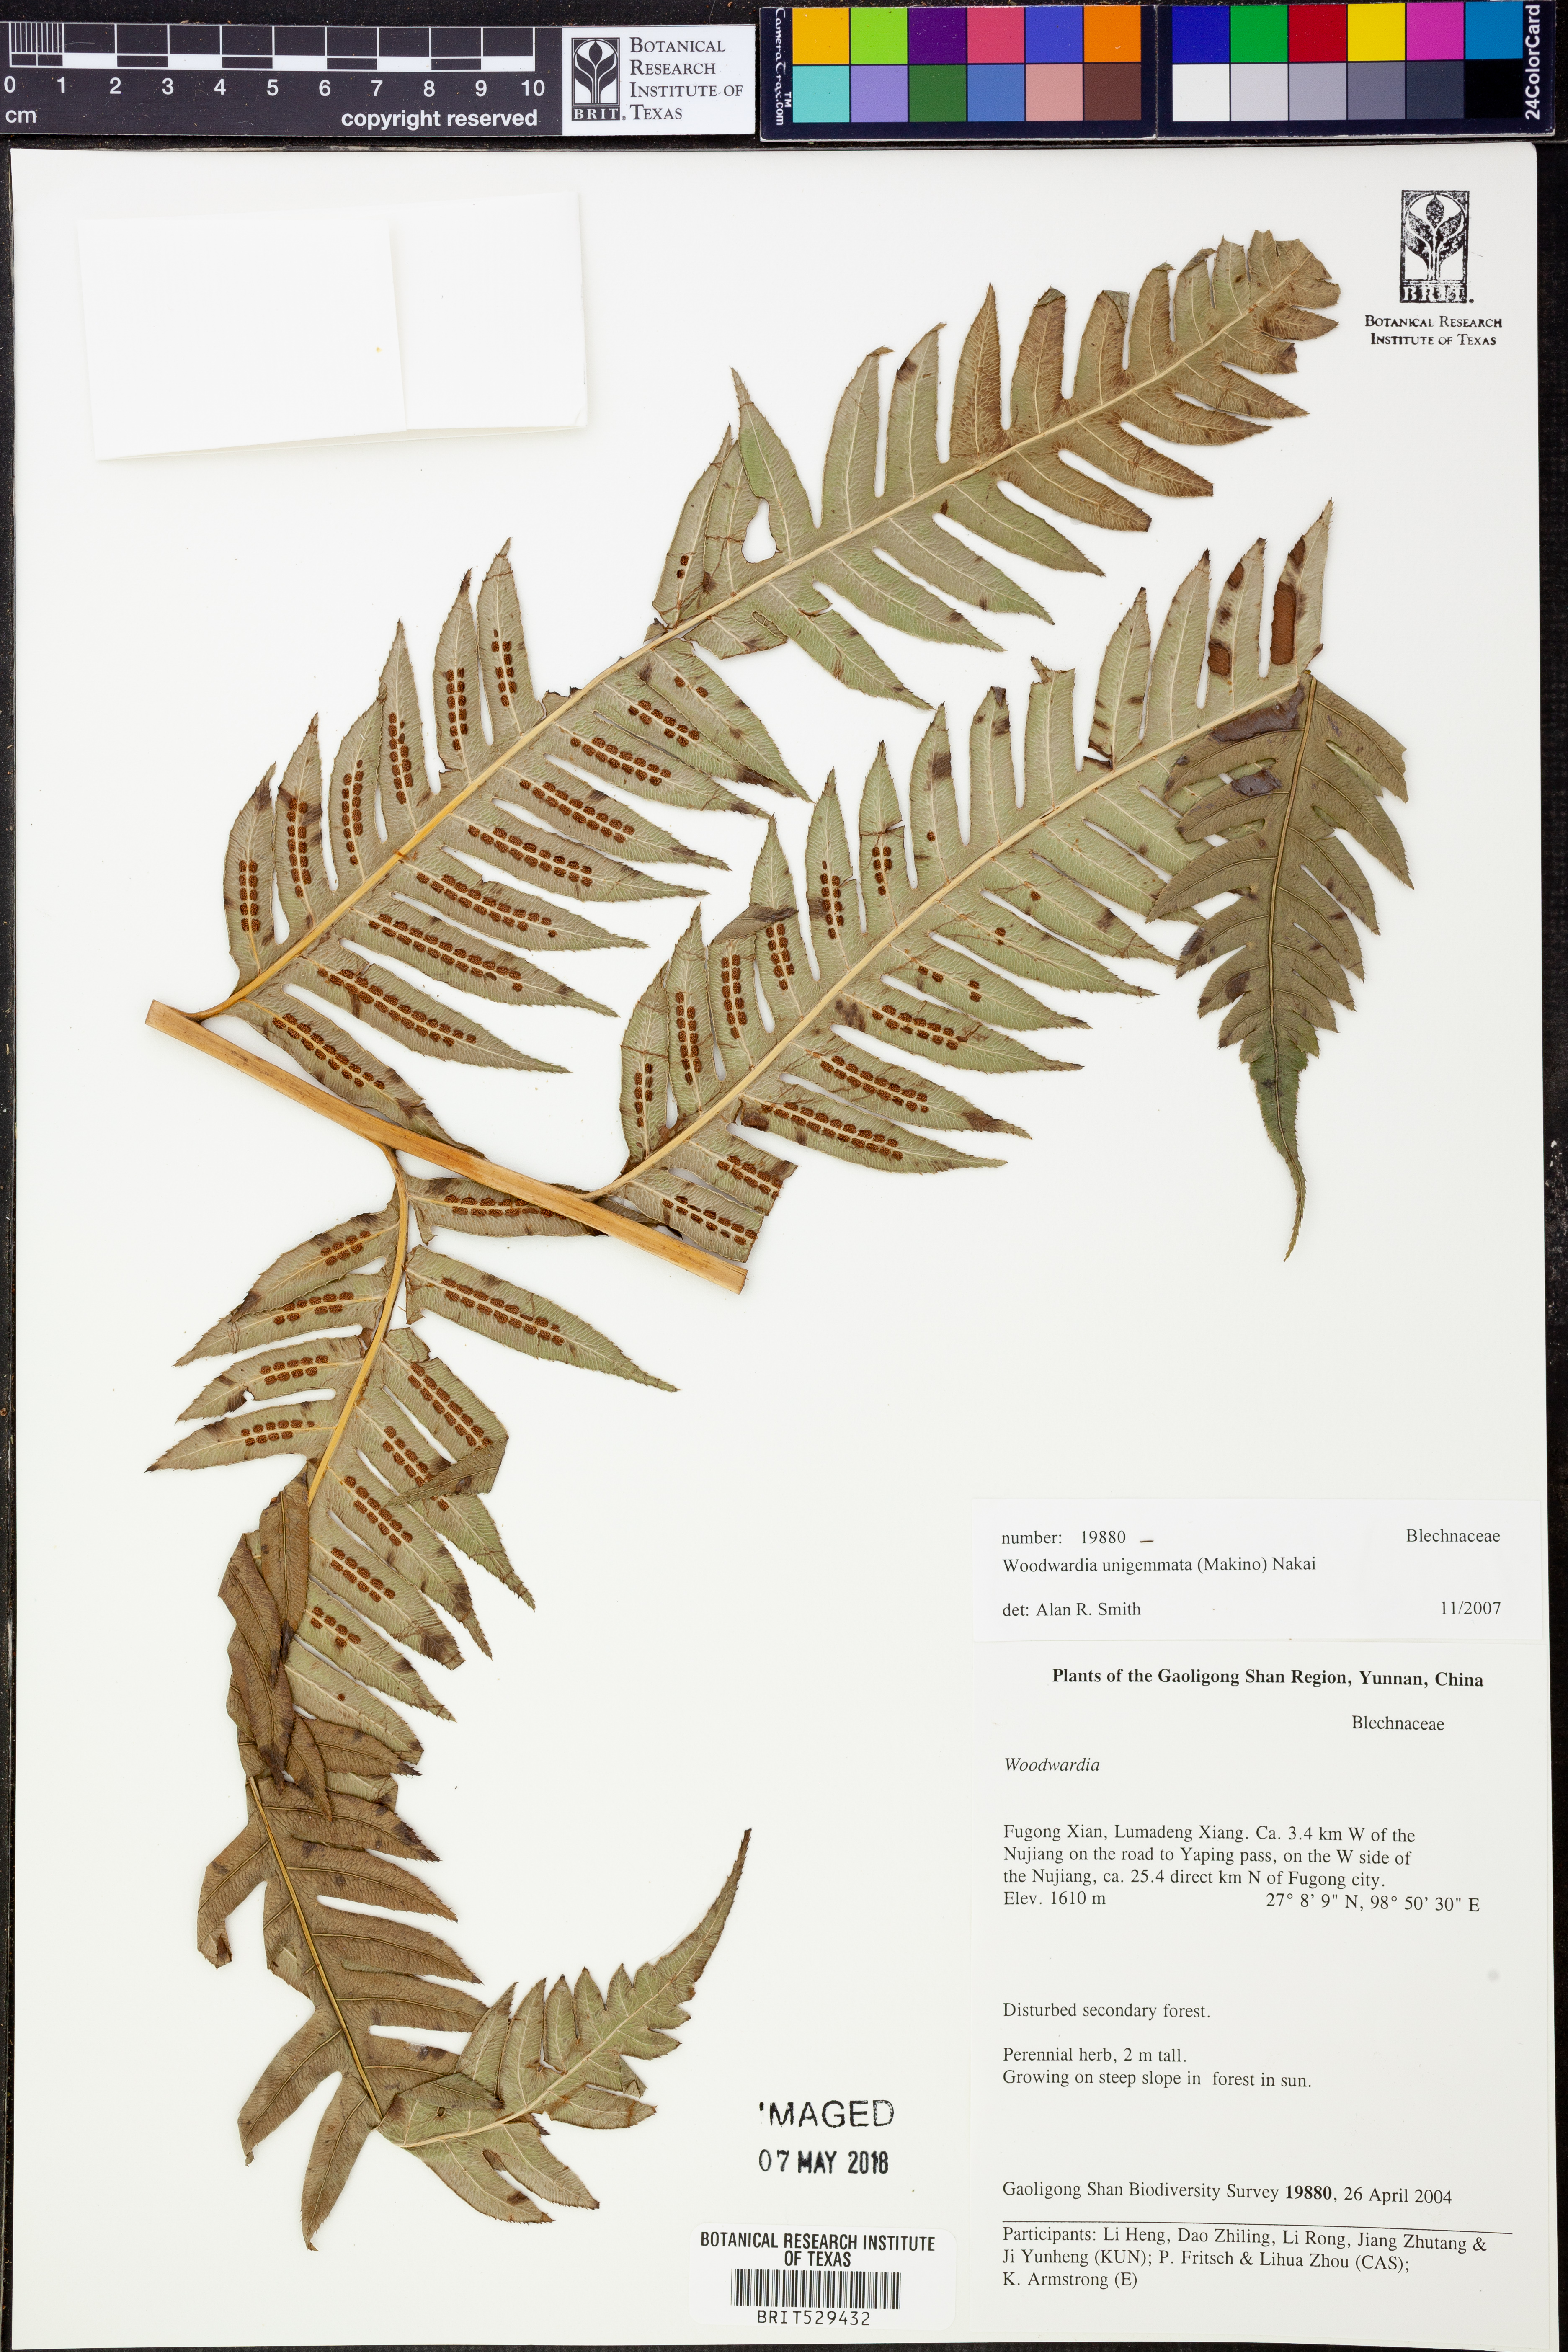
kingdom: Plantae
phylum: Tracheophyta
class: Polypodiopsida
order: Polypodiales
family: Blechnaceae
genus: Woodwardia
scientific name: Woodwardia unigemmata
